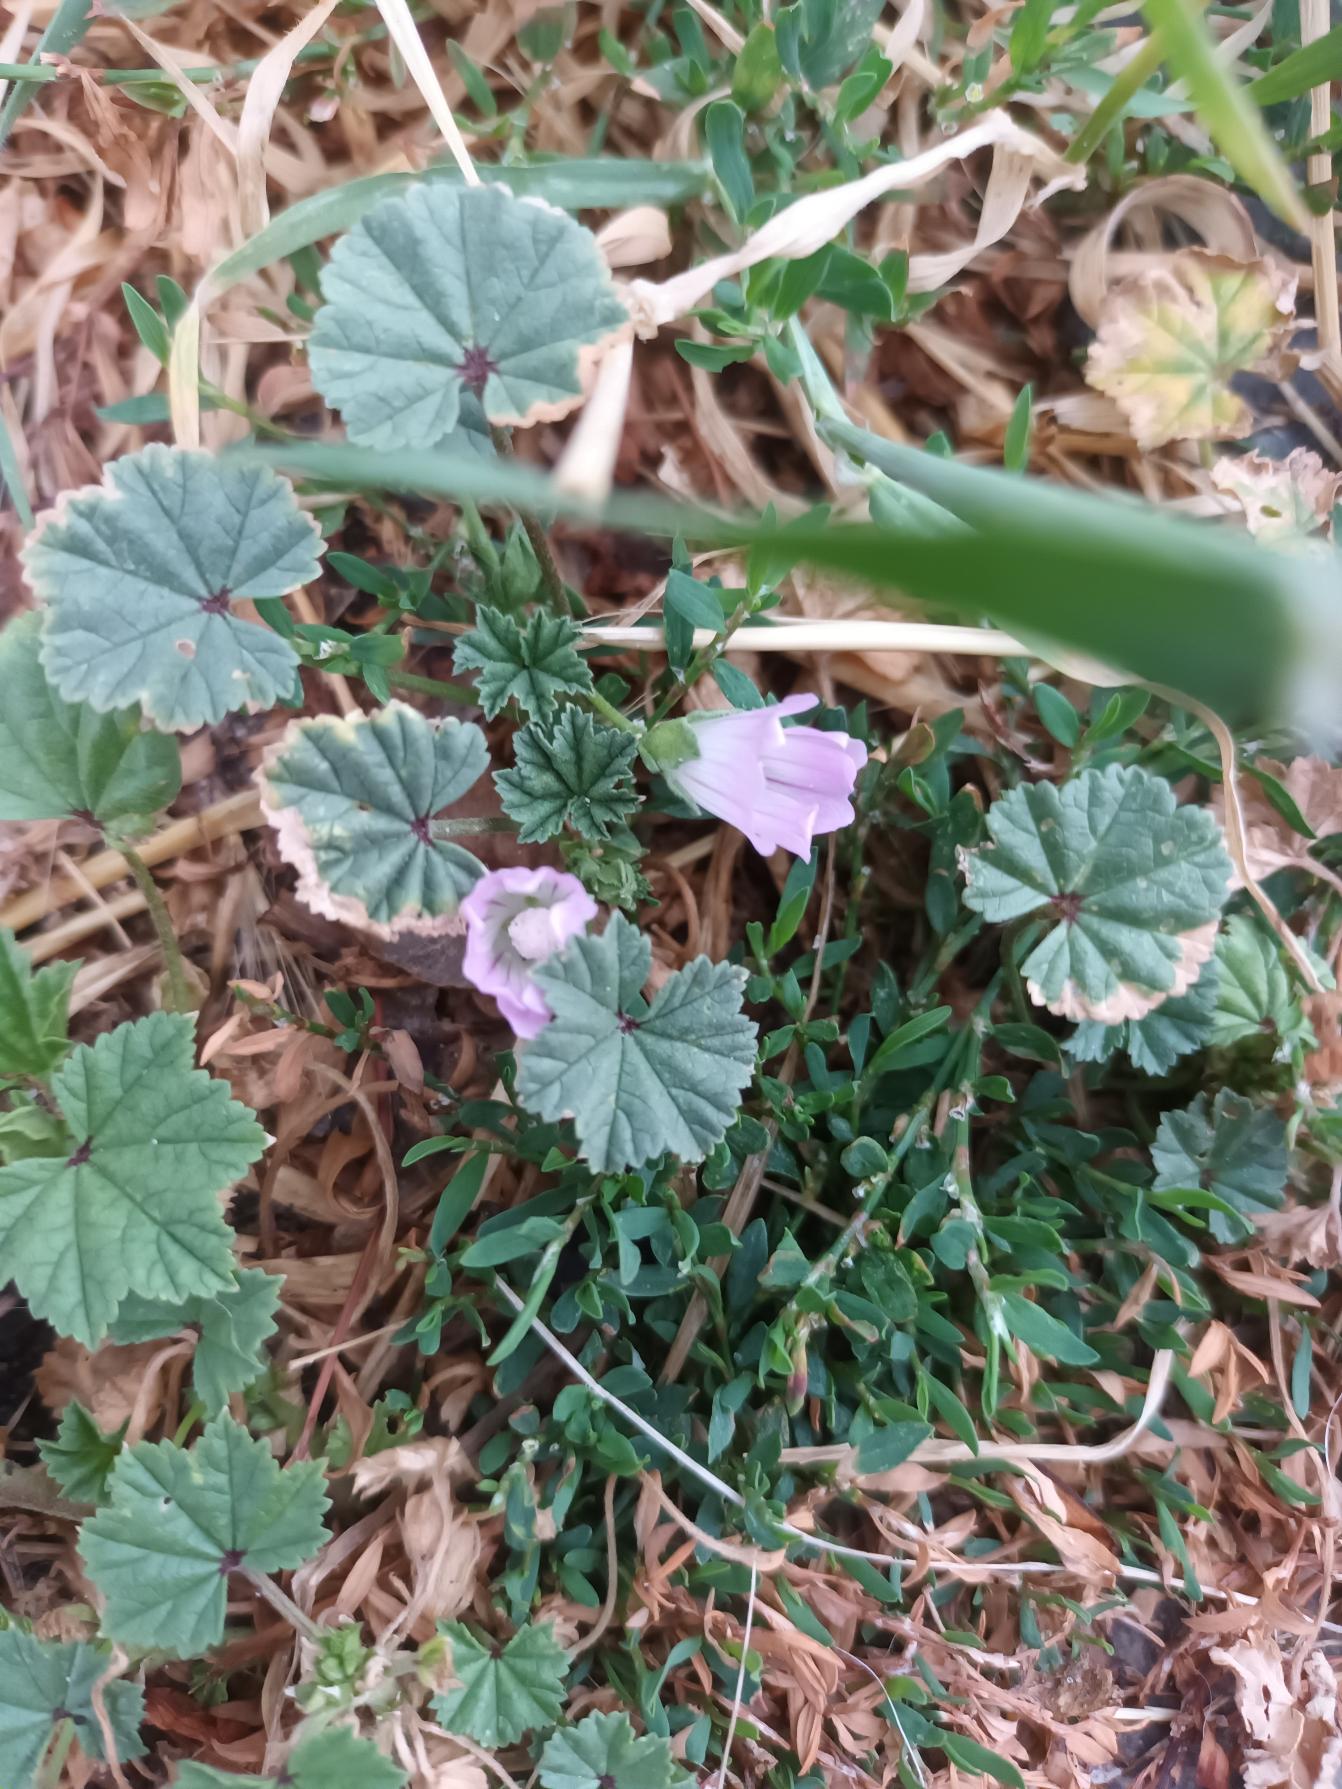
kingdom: Plantae
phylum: Tracheophyta
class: Magnoliopsida
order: Malvales
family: Malvaceae
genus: Malva
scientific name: Malva neglecta
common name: Rundbladet katost
